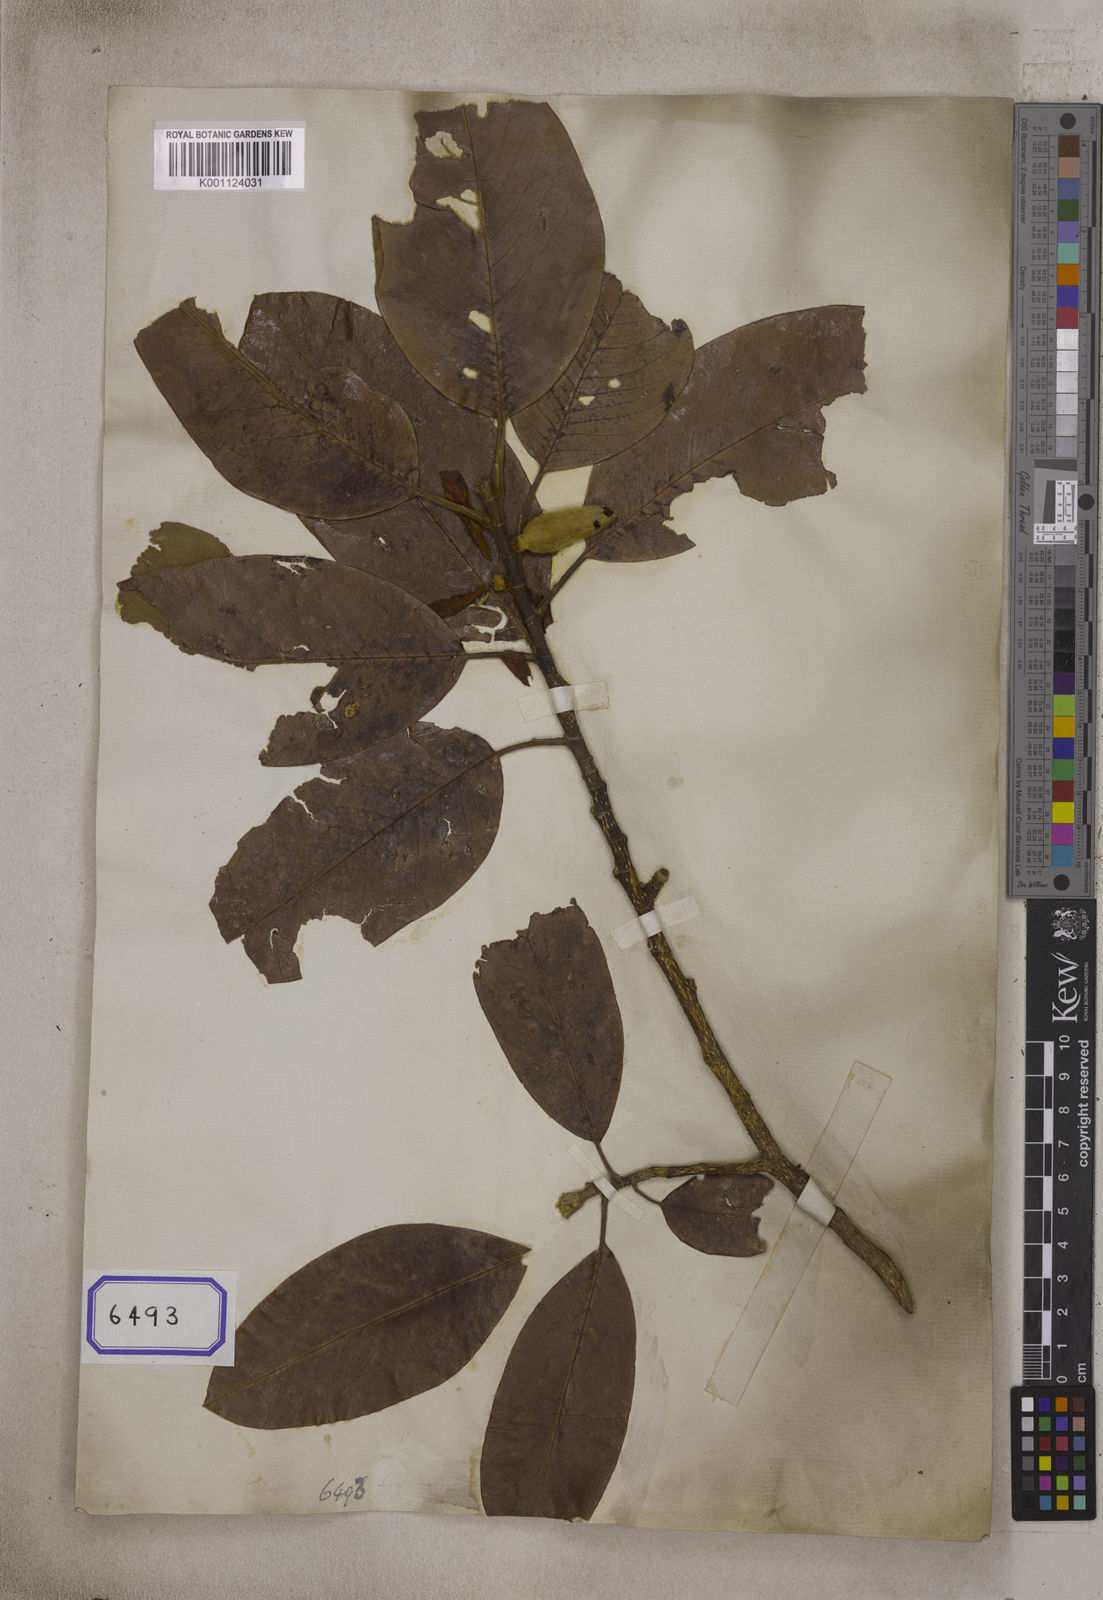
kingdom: Plantae
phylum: Tracheophyta
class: Magnoliopsida
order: Magnoliales
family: Magnoliaceae
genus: Magnolia
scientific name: Magnolia lanuginosa
